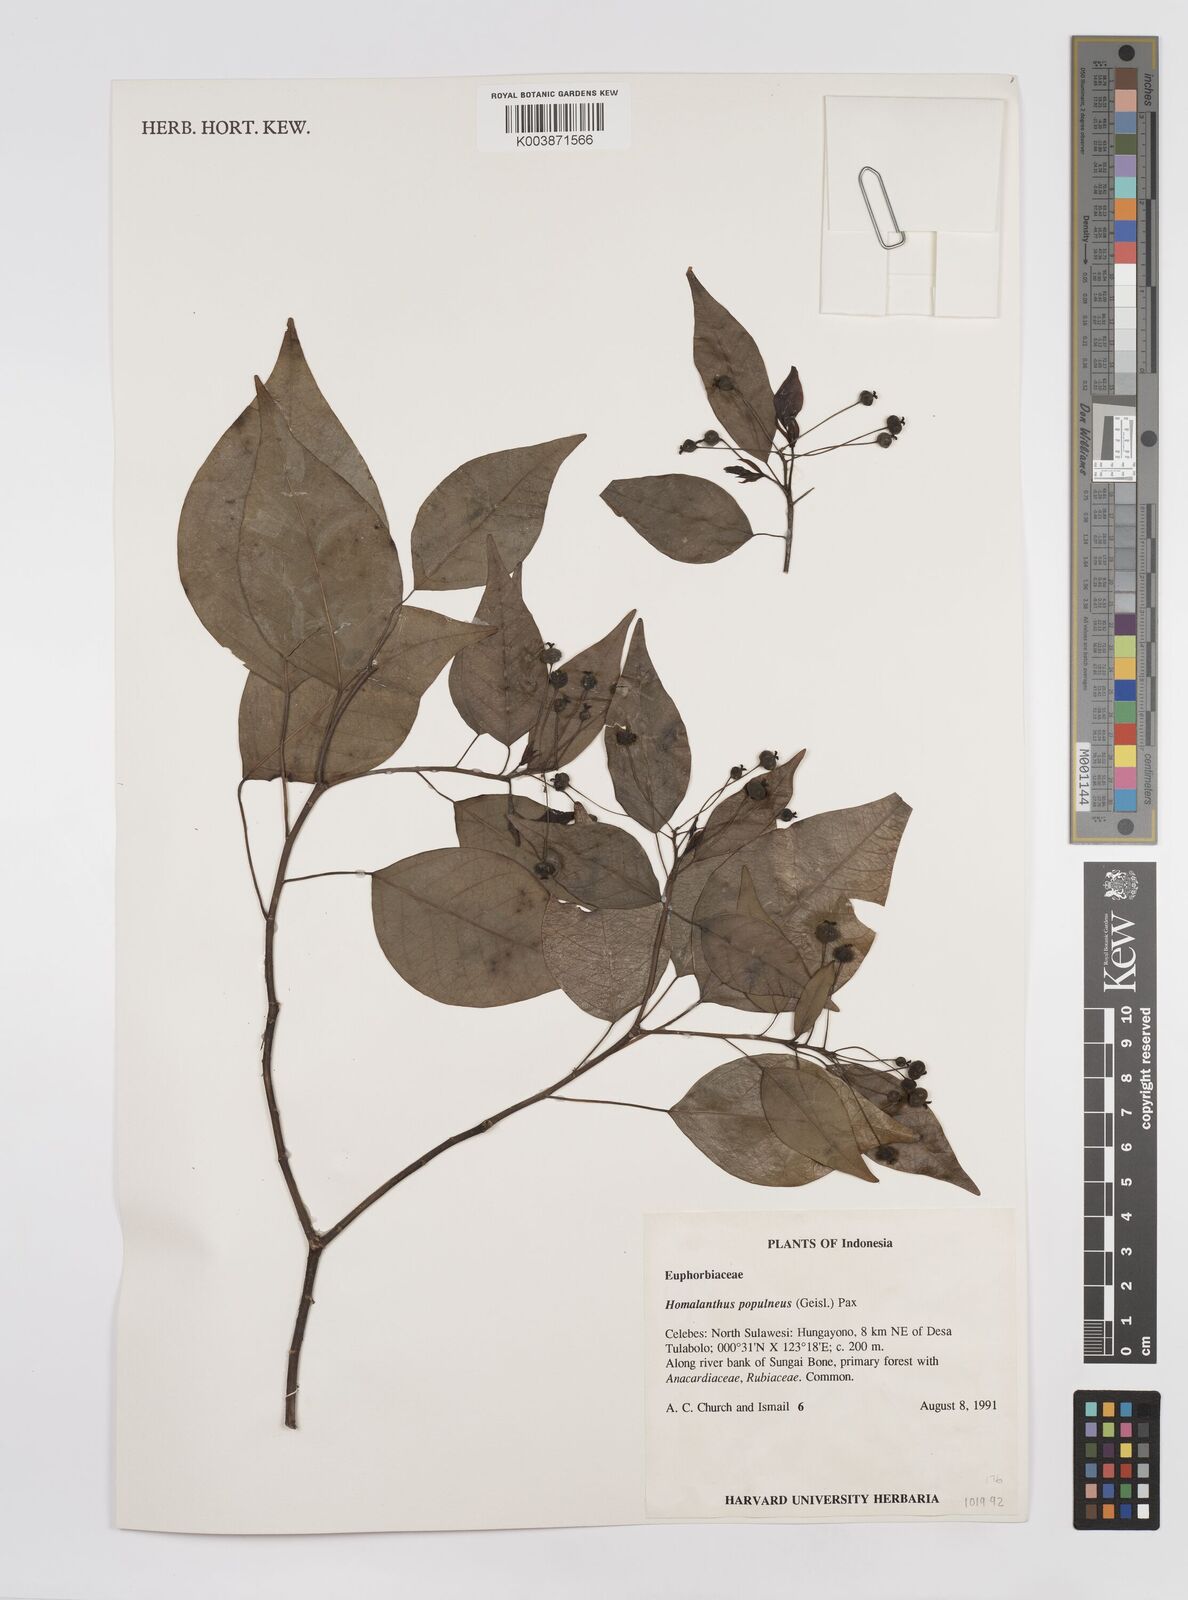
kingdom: Plantae
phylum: Tracheophyta
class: Magnoliopsida
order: Malpighiales
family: Euphorbiaceae
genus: Homalanthus
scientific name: Homalanthus populneus
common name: Spurge
